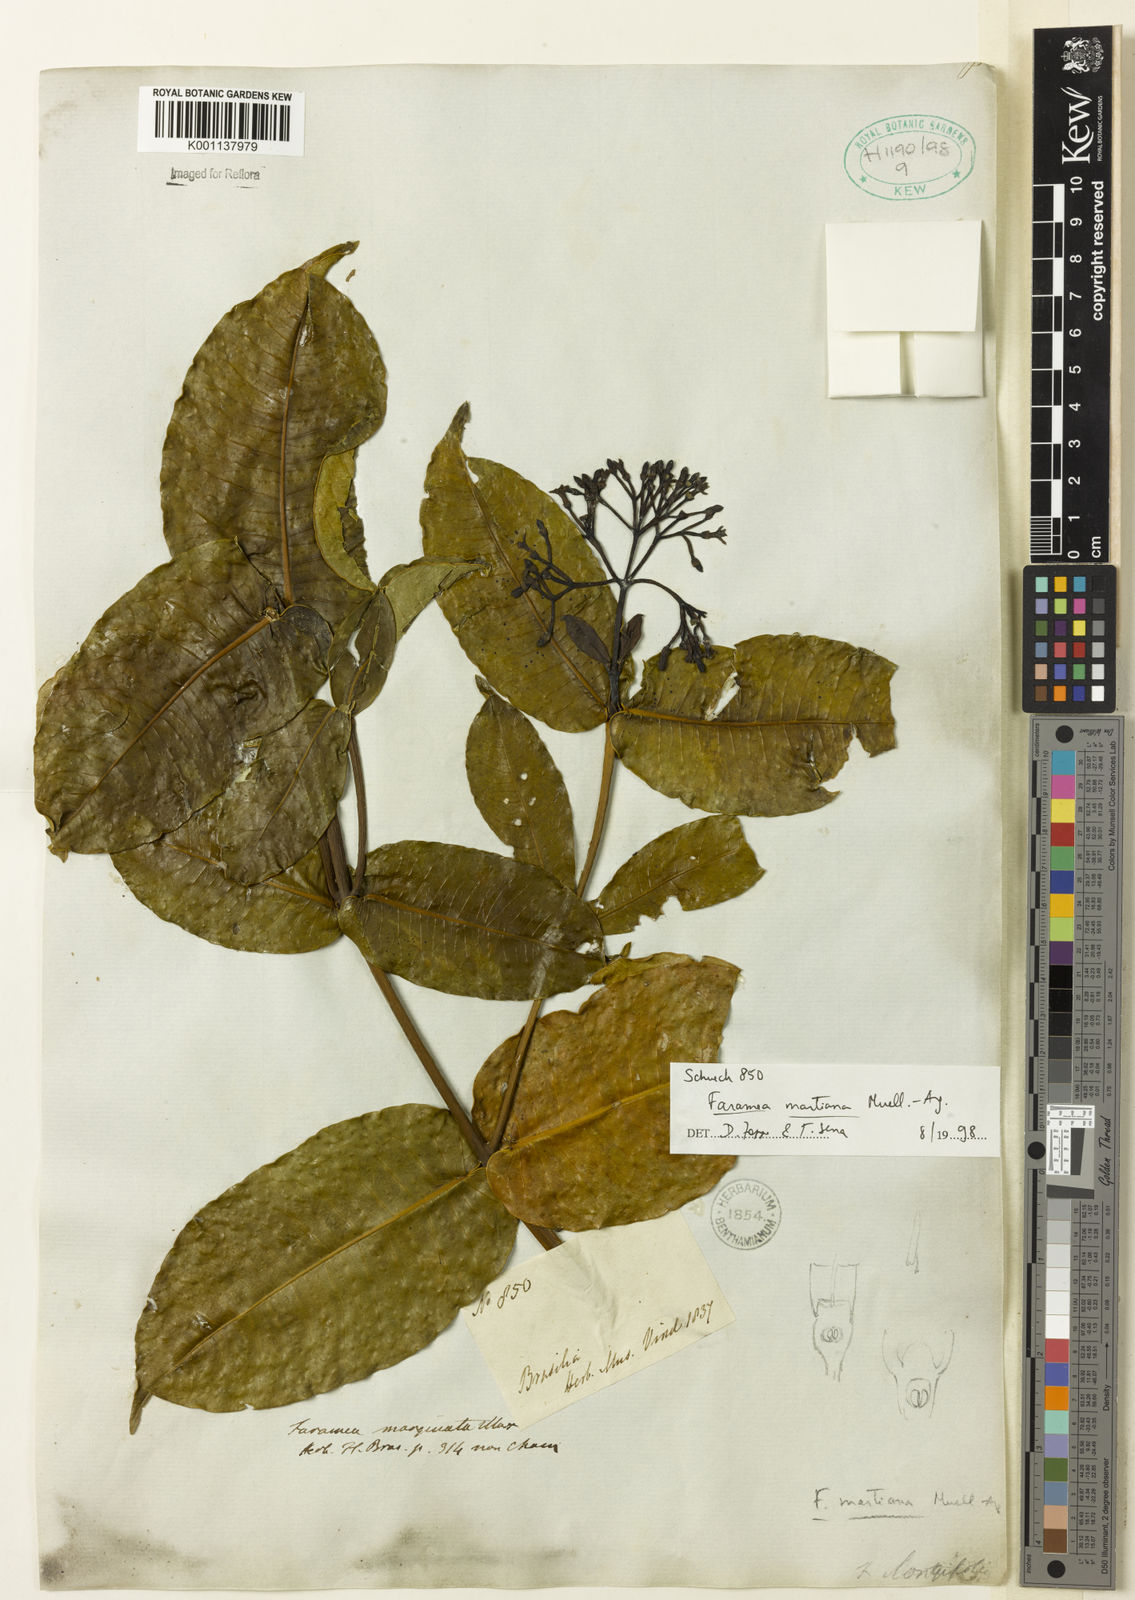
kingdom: Plantae
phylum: Tracheophyta
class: Magnoliopsida
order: Gentianales
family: Rubiaceae
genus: Faramea
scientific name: Faramea
